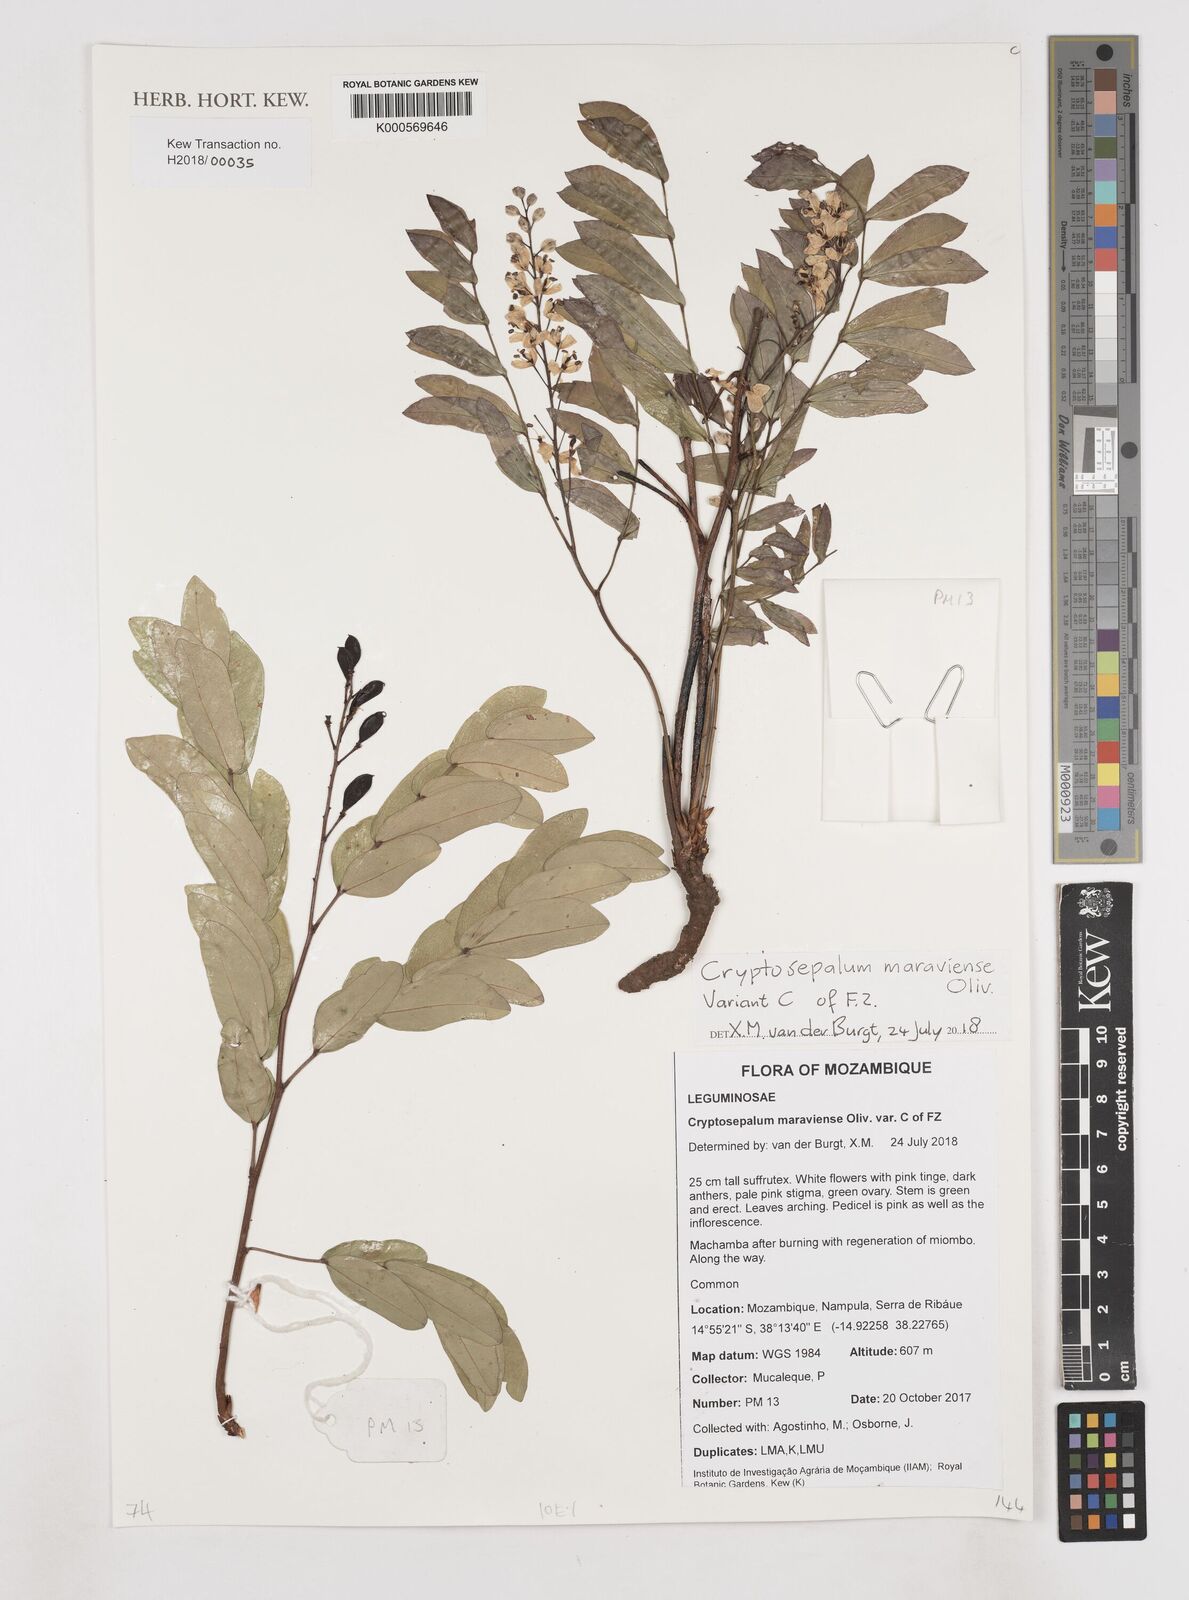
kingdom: Plantae
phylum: Tracheophyta
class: Magnoliopsida
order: Fabales
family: Fabaceae
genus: Cryptosepalum
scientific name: Cryptosepalum maraviense
